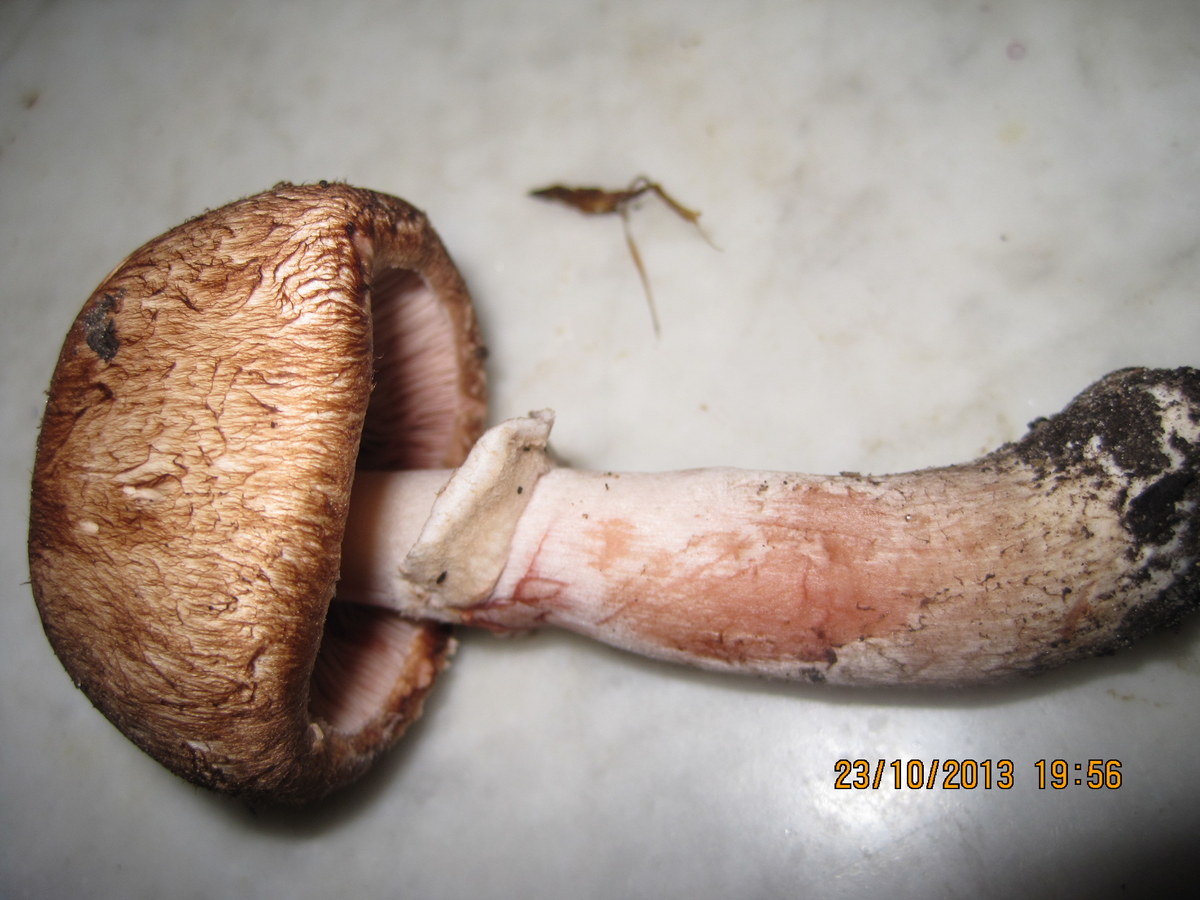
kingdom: Fungi
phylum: Basidiomycota
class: Agaricomycetes
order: Agaricales
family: Agaricaceae
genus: Agaricus
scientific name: Agaricus sylvaticus
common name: lille blod-champignon
